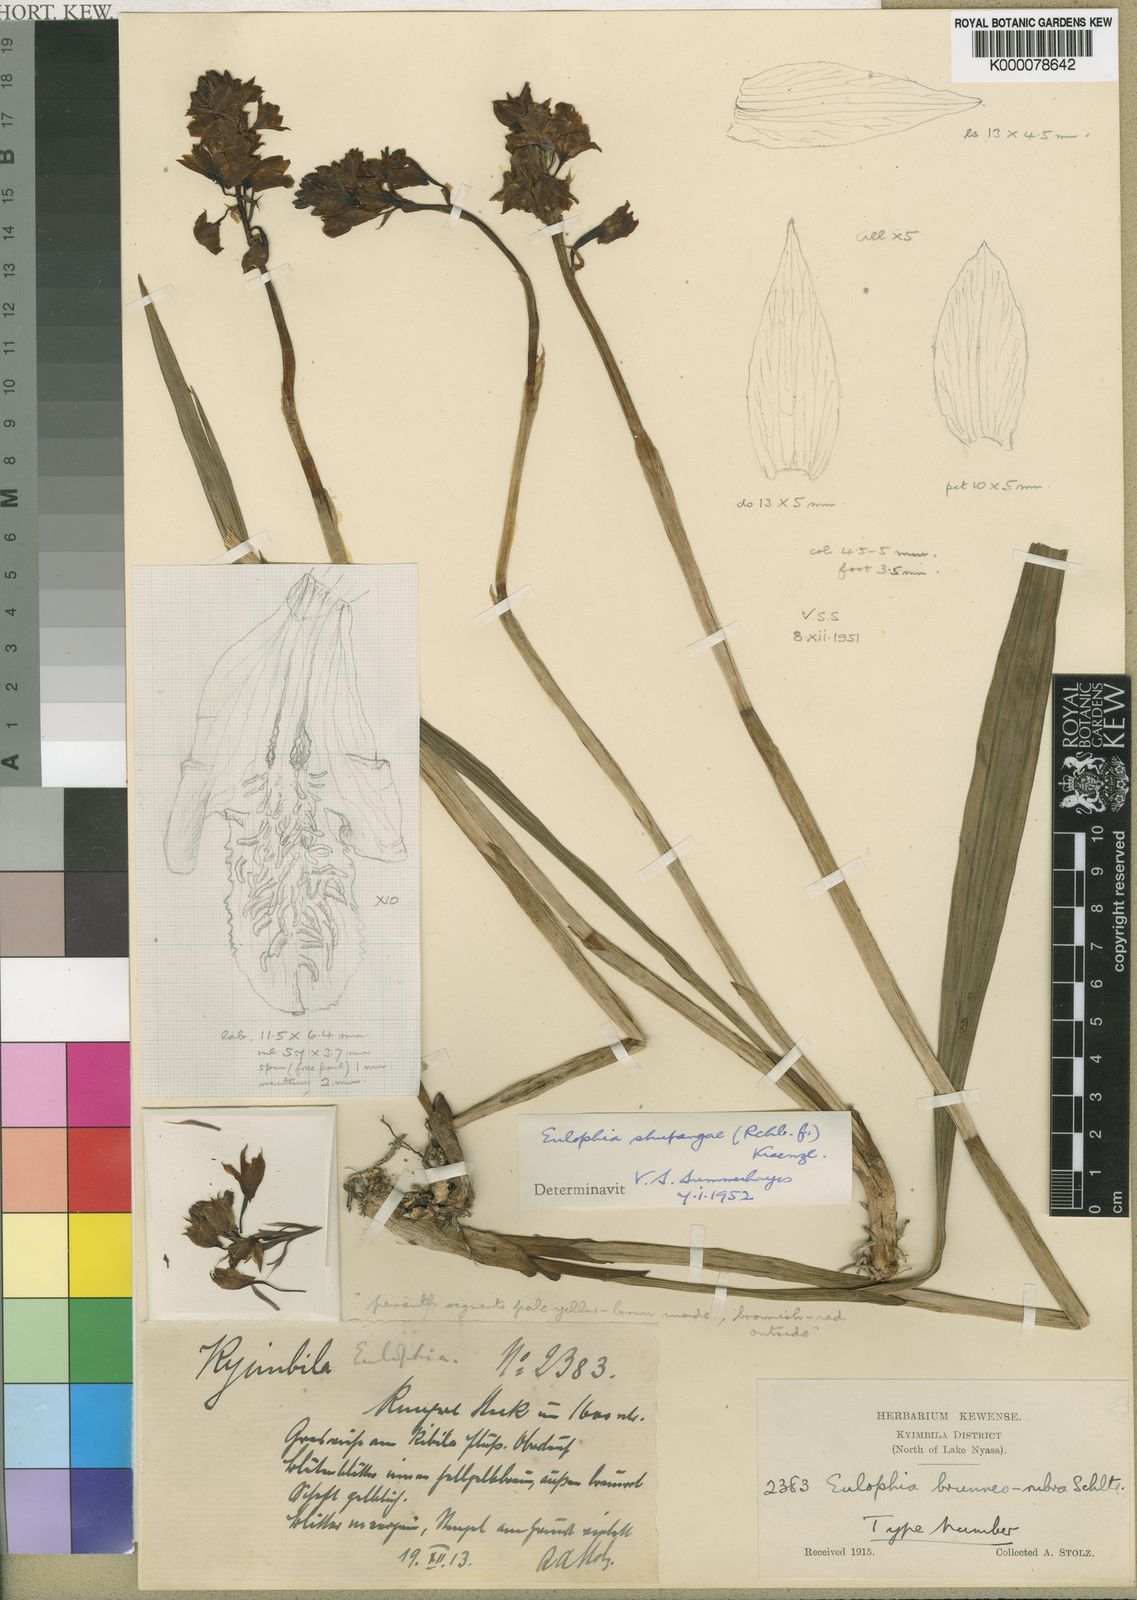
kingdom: Plantae
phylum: Tracheophyta
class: Liliopsida
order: Asparagales
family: Orchidaceae
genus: Eulophia
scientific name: Eulophia odontoglossa
